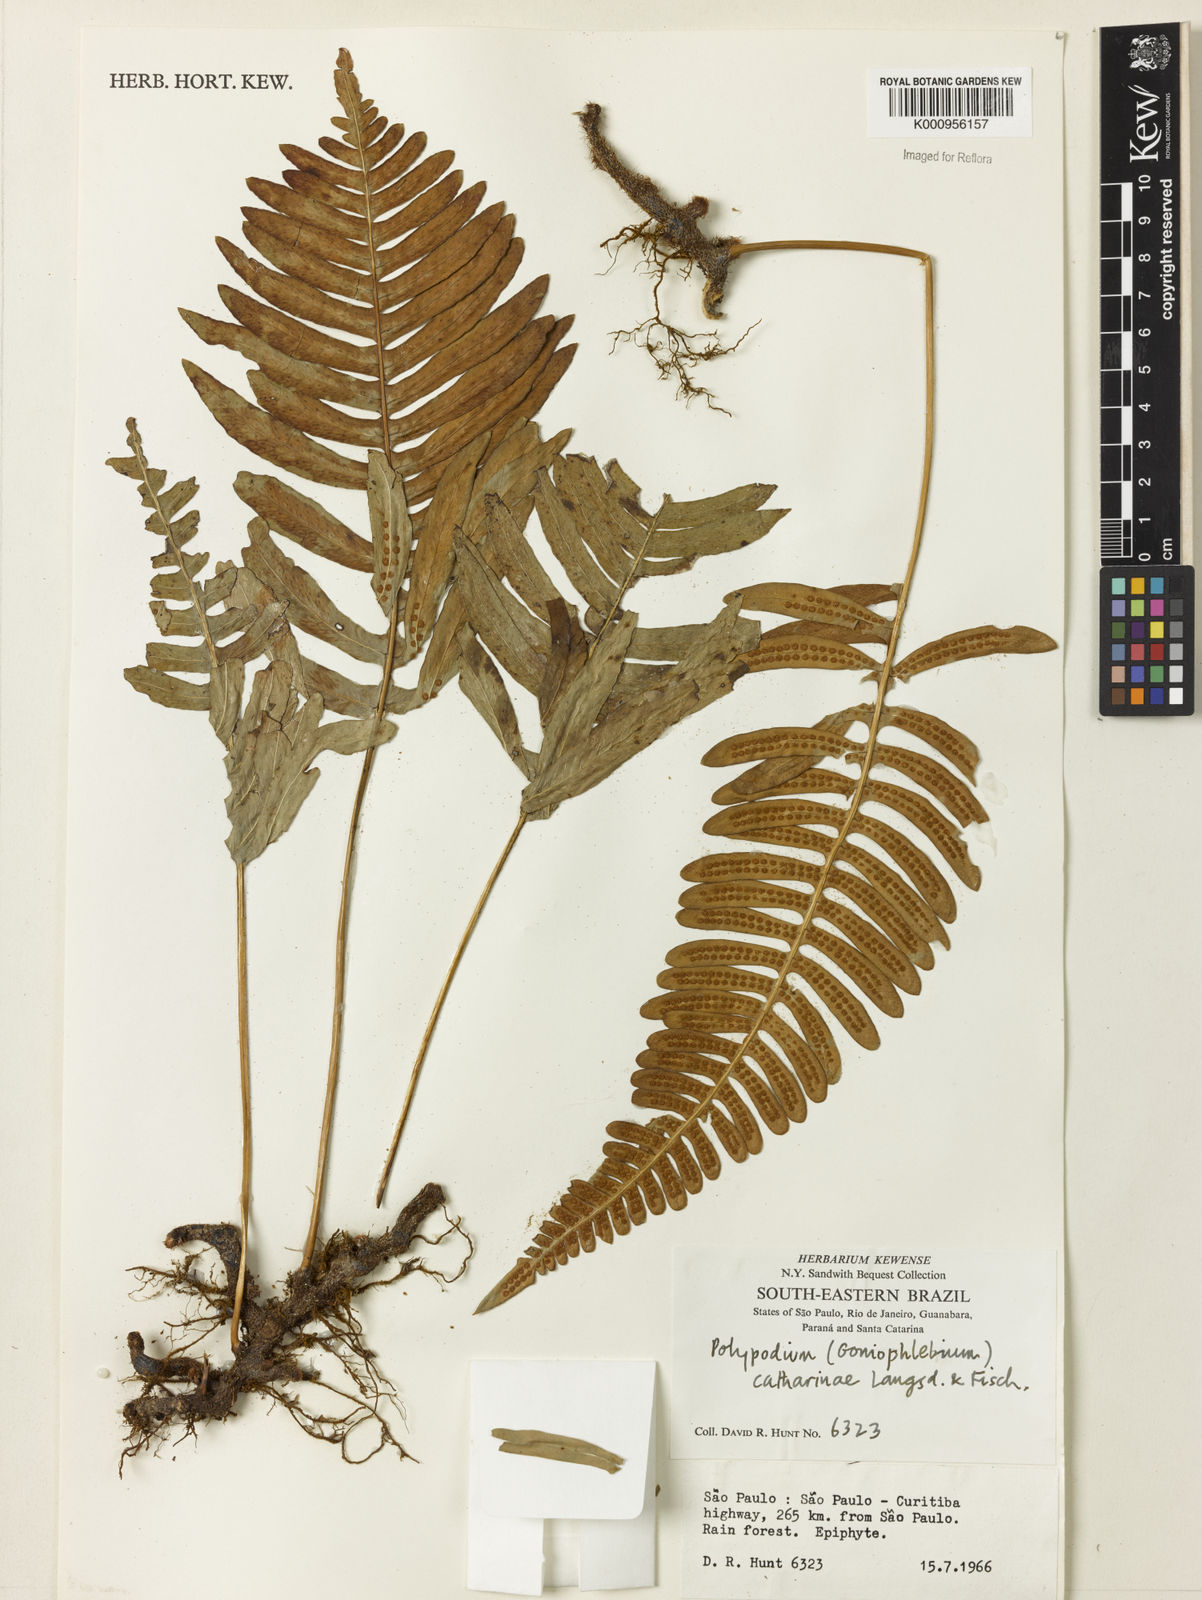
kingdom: Plantae
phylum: Tracheophyta
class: Polypodiopsida
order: Polypodiales
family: Polypodiaceae
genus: Serpocaulon
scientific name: Serpocaulon catharinae
